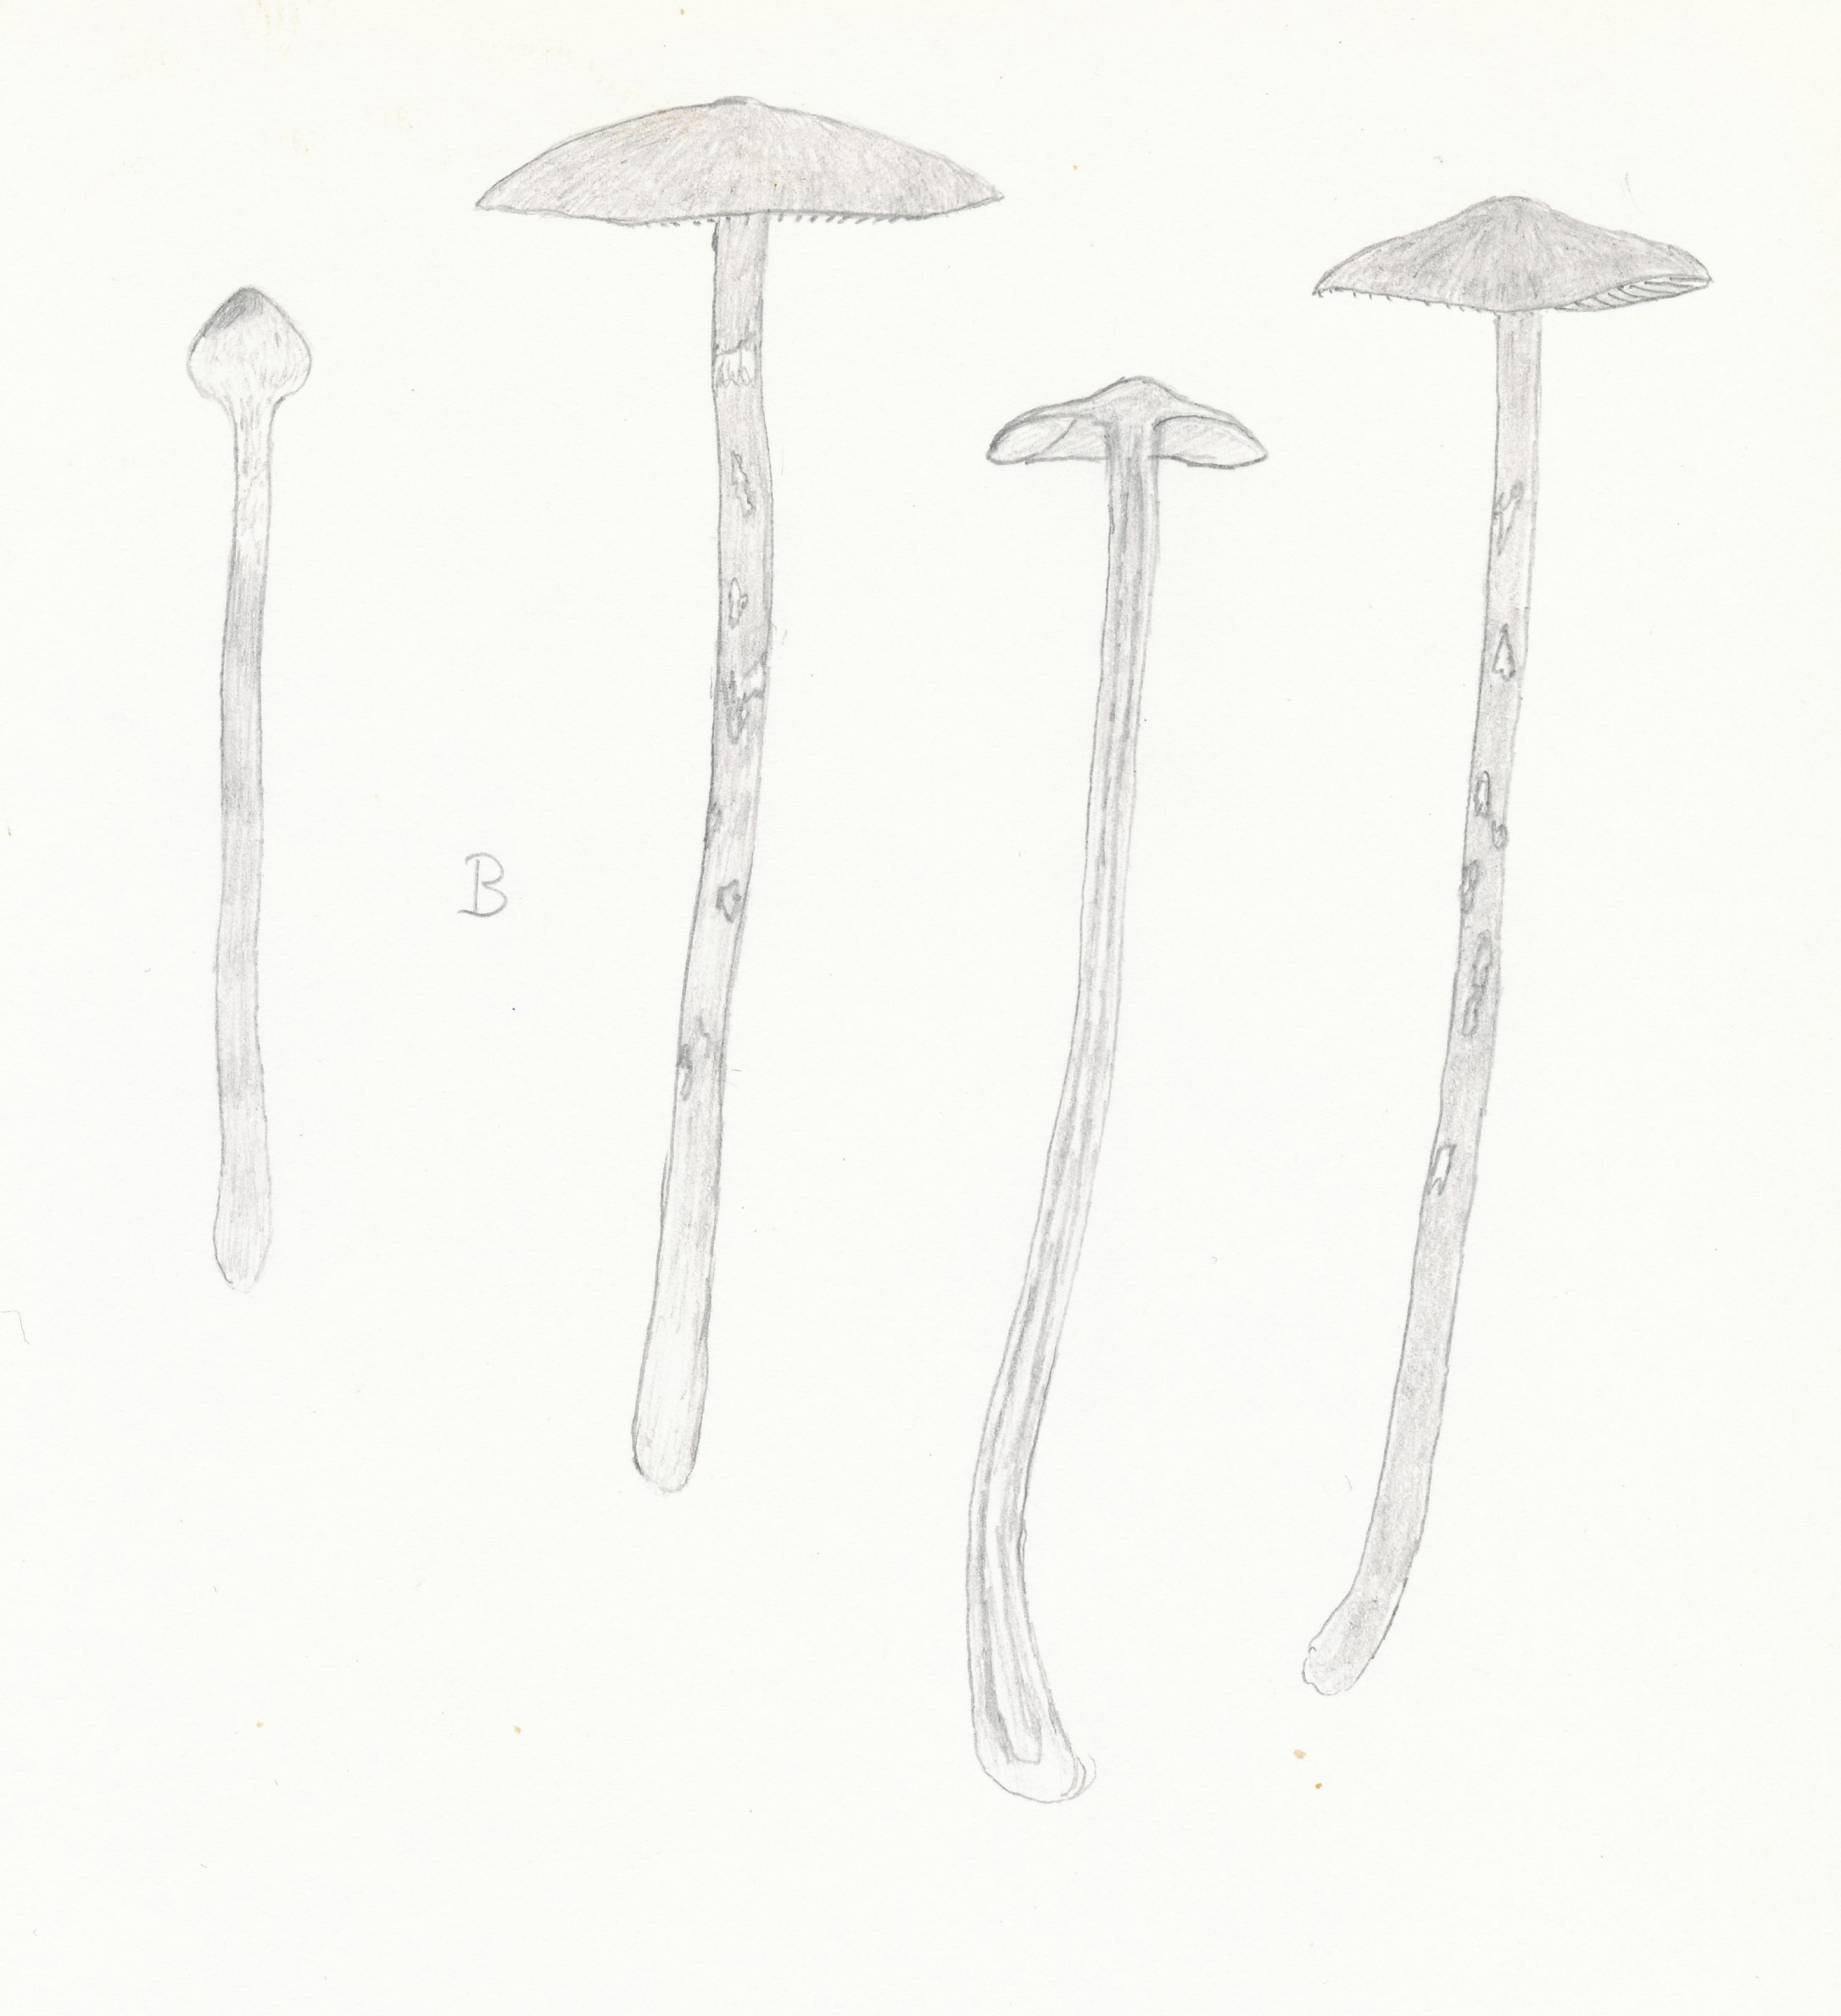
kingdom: Fungi
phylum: Basidiomycota
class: Agaricomycetes
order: Agaricales
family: Hymenogastraceae
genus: Galerina
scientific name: Galerina paludosa
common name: mose-hjelmhat
